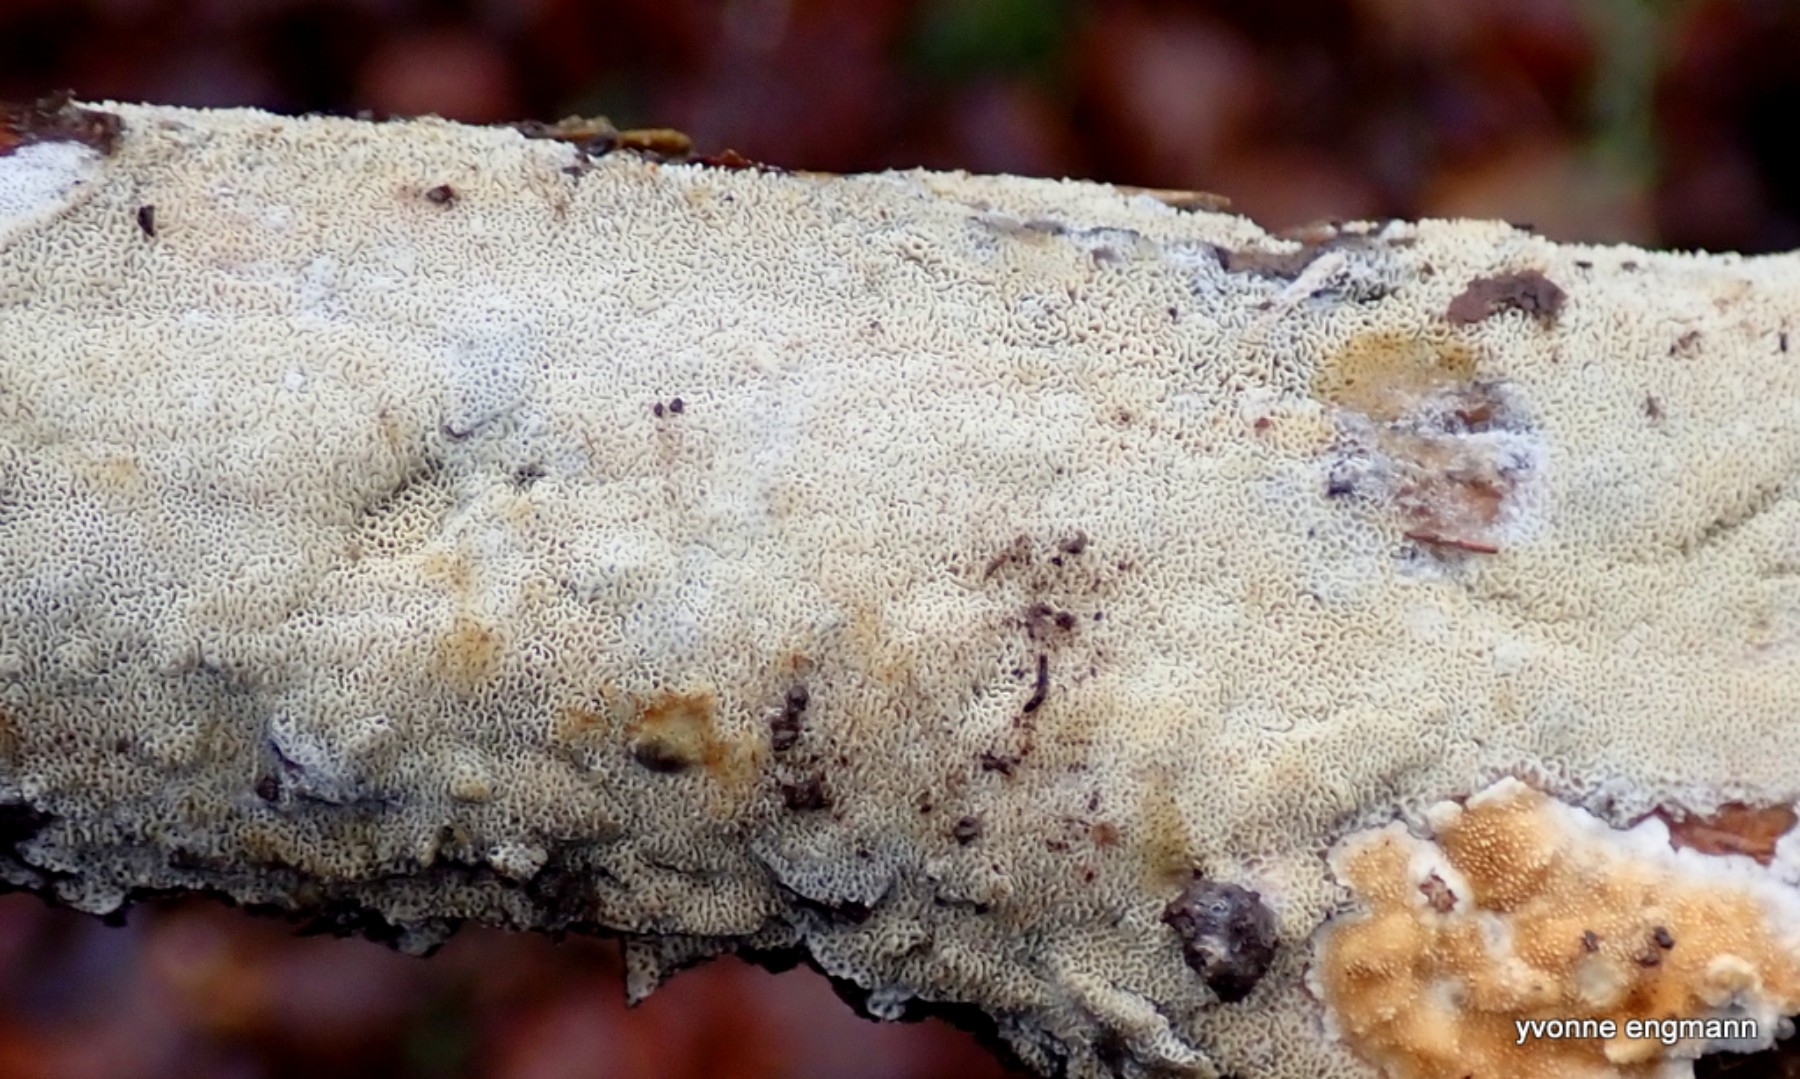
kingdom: Fungi
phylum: Basidiomycota
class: Agaricomycetes
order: Hymenochaetales
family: Schizoporaceae
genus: Xylodon
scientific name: Xylodon subtropicus
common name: labyrint-tandsvamp
